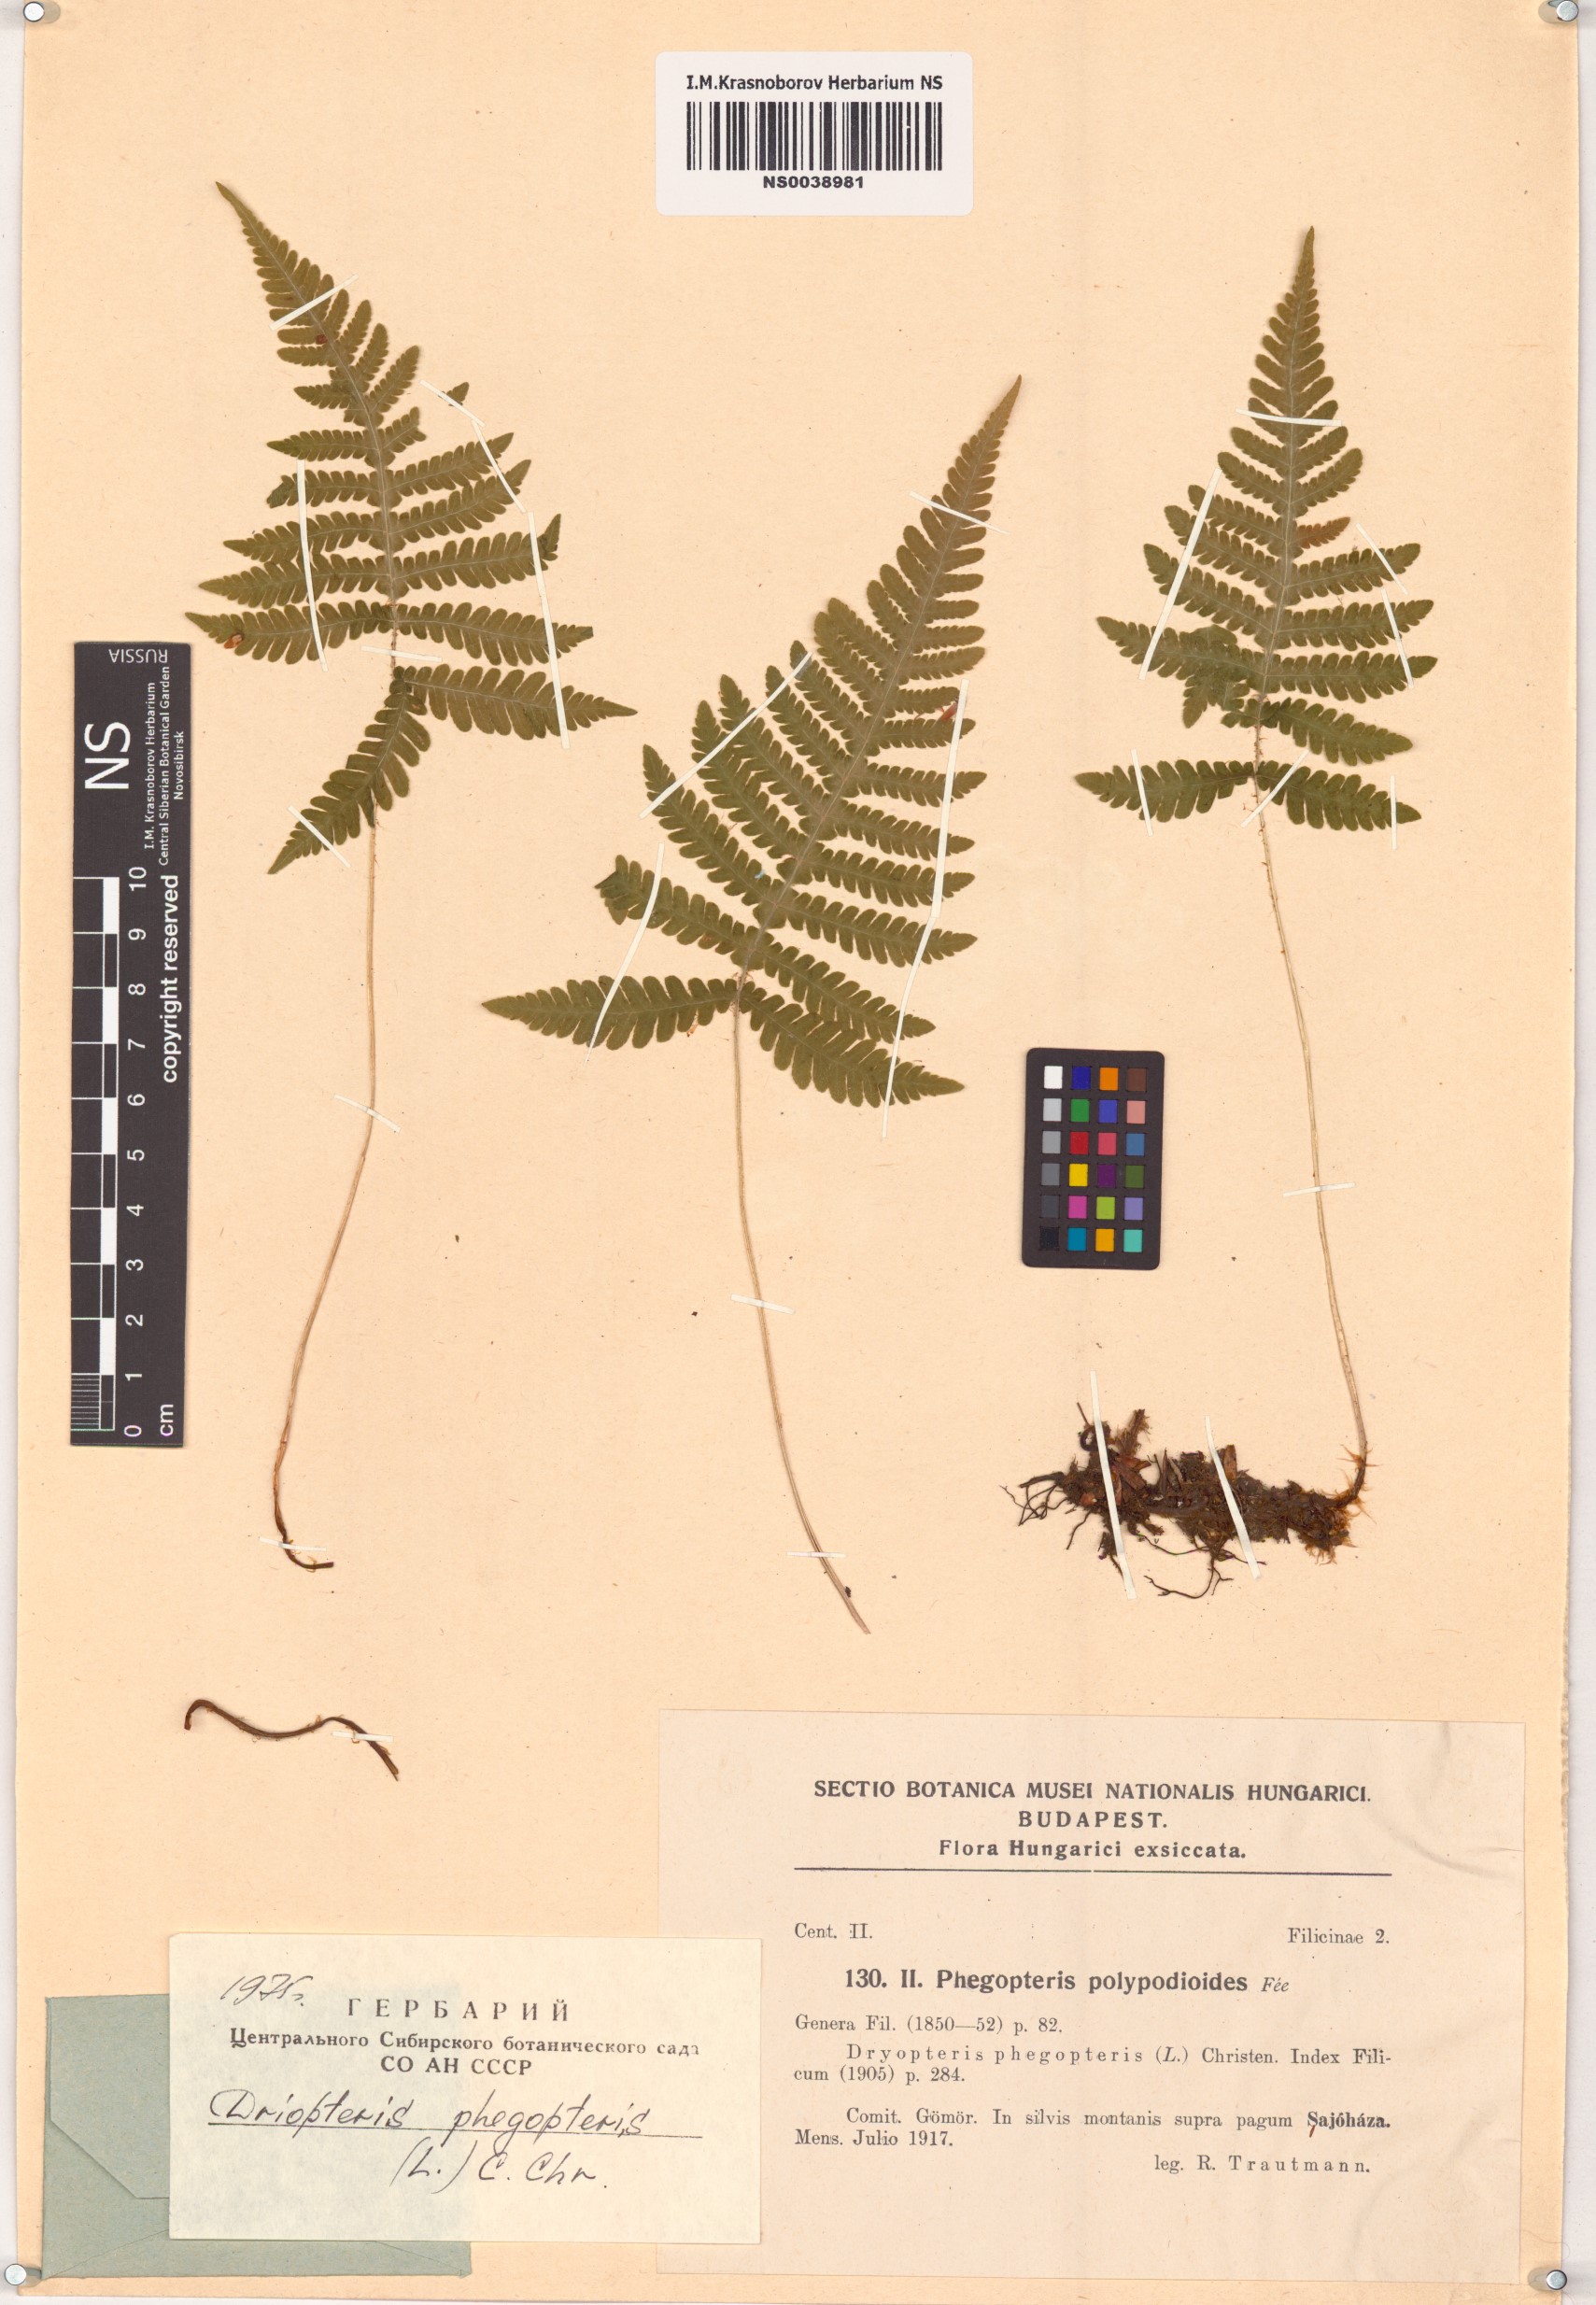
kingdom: Plantae
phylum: Tracheophyta
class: Polypodiopsida
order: Polypodiales
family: Thelypteridaceae
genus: Phegopteris
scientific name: Phegopteris connectilis
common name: Beech fern
